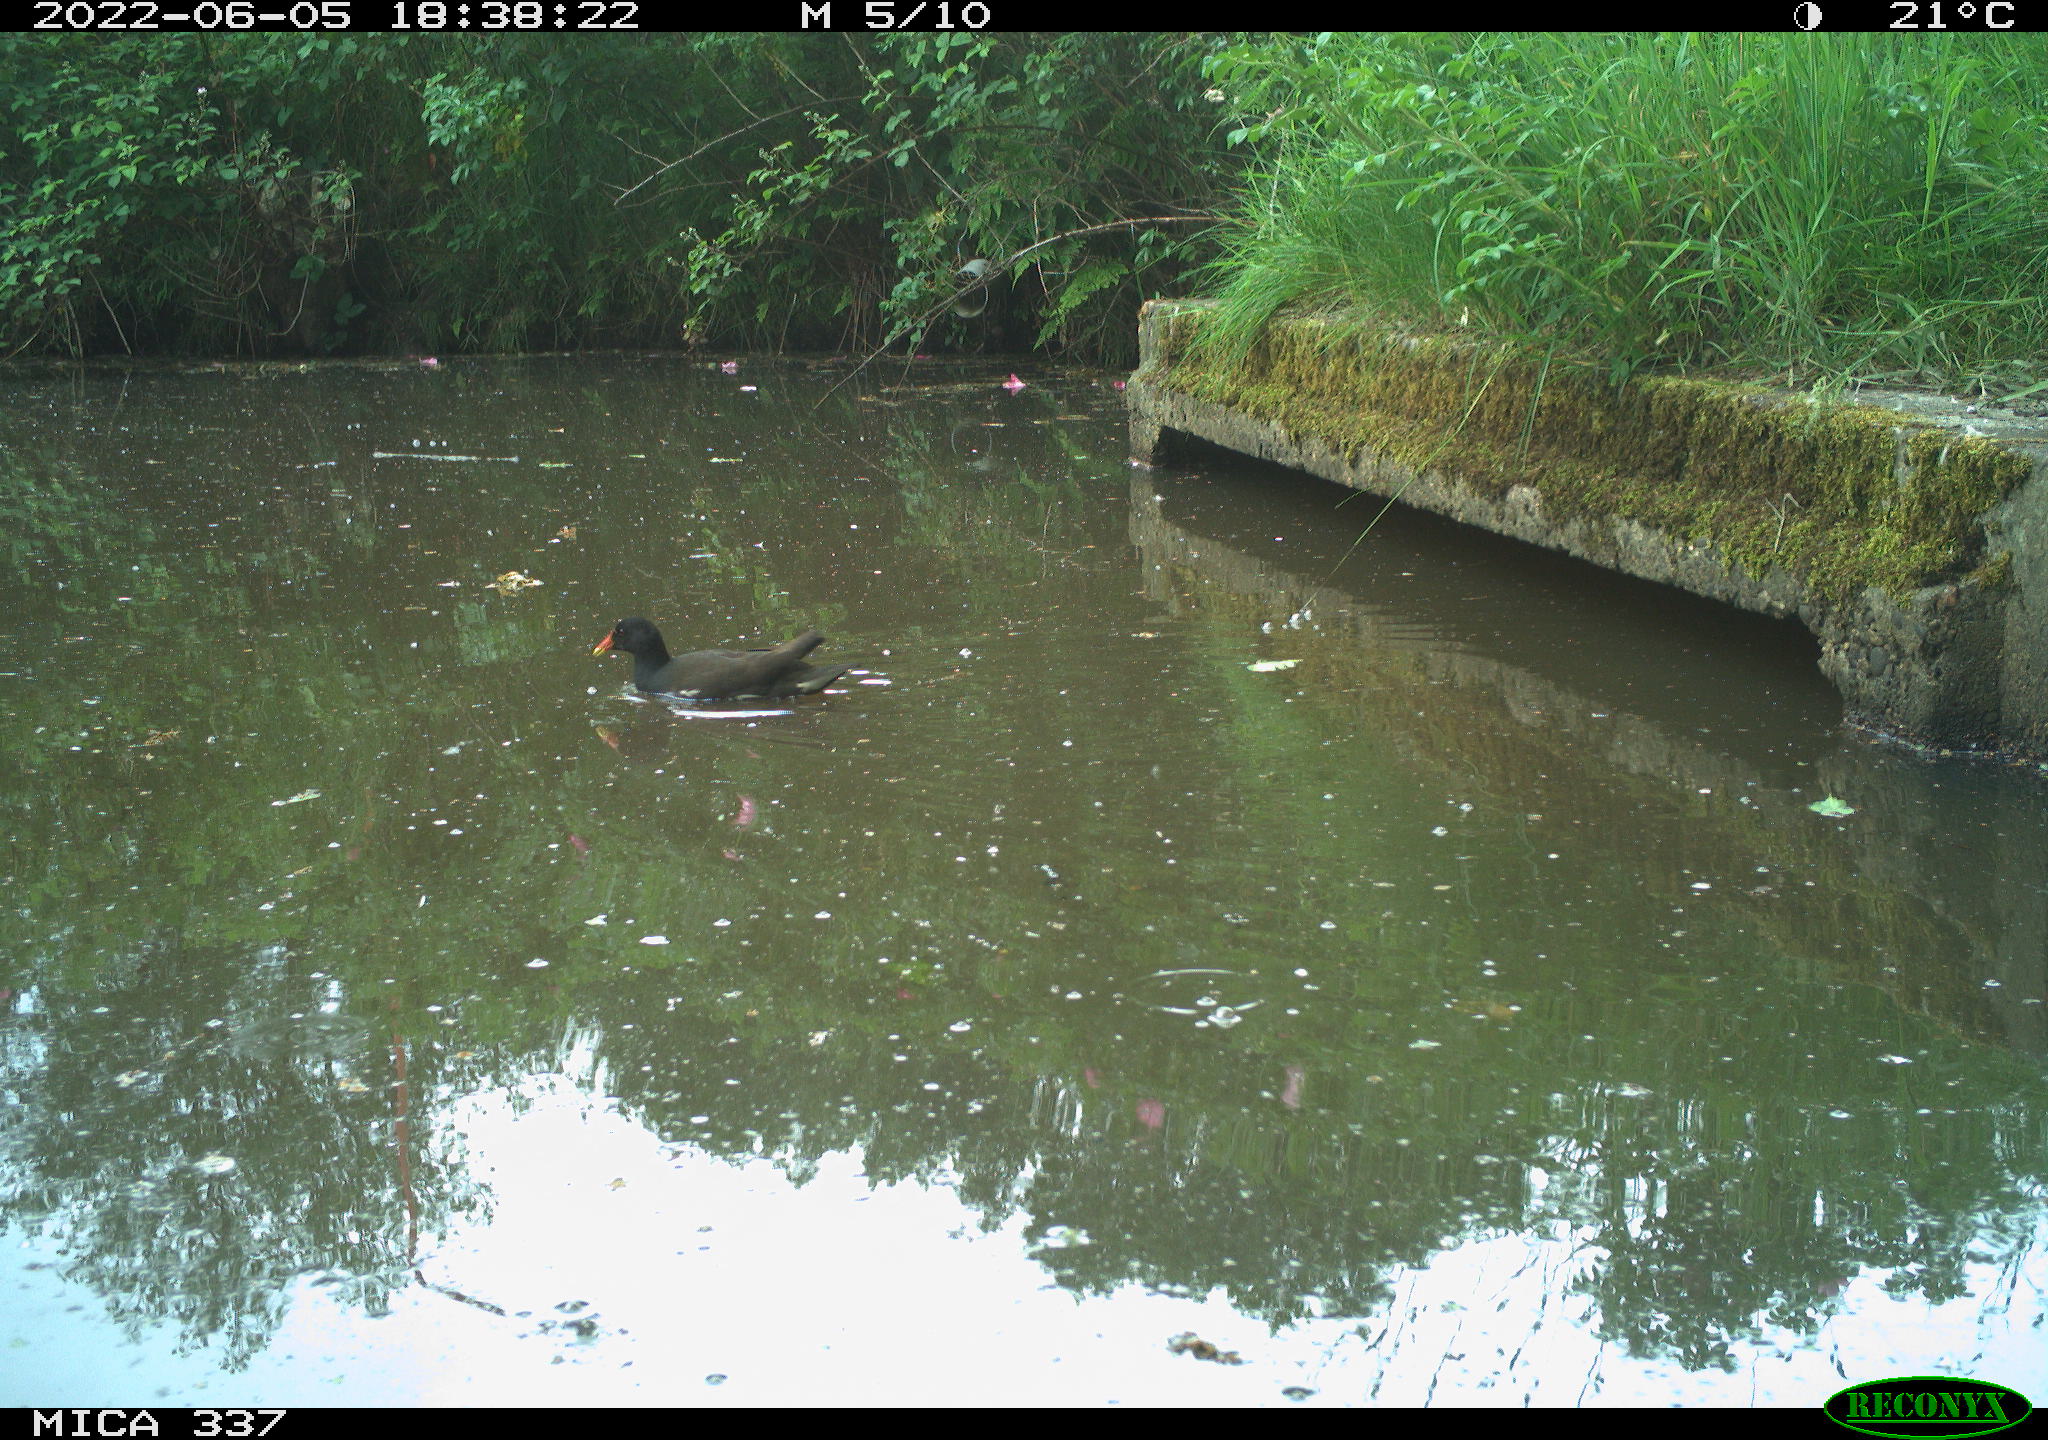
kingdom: Animalia
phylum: Chordata
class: Aves
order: Gruiformes
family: Rallidae
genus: Gallinula
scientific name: Gallinula chloropus
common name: Common moorhen
